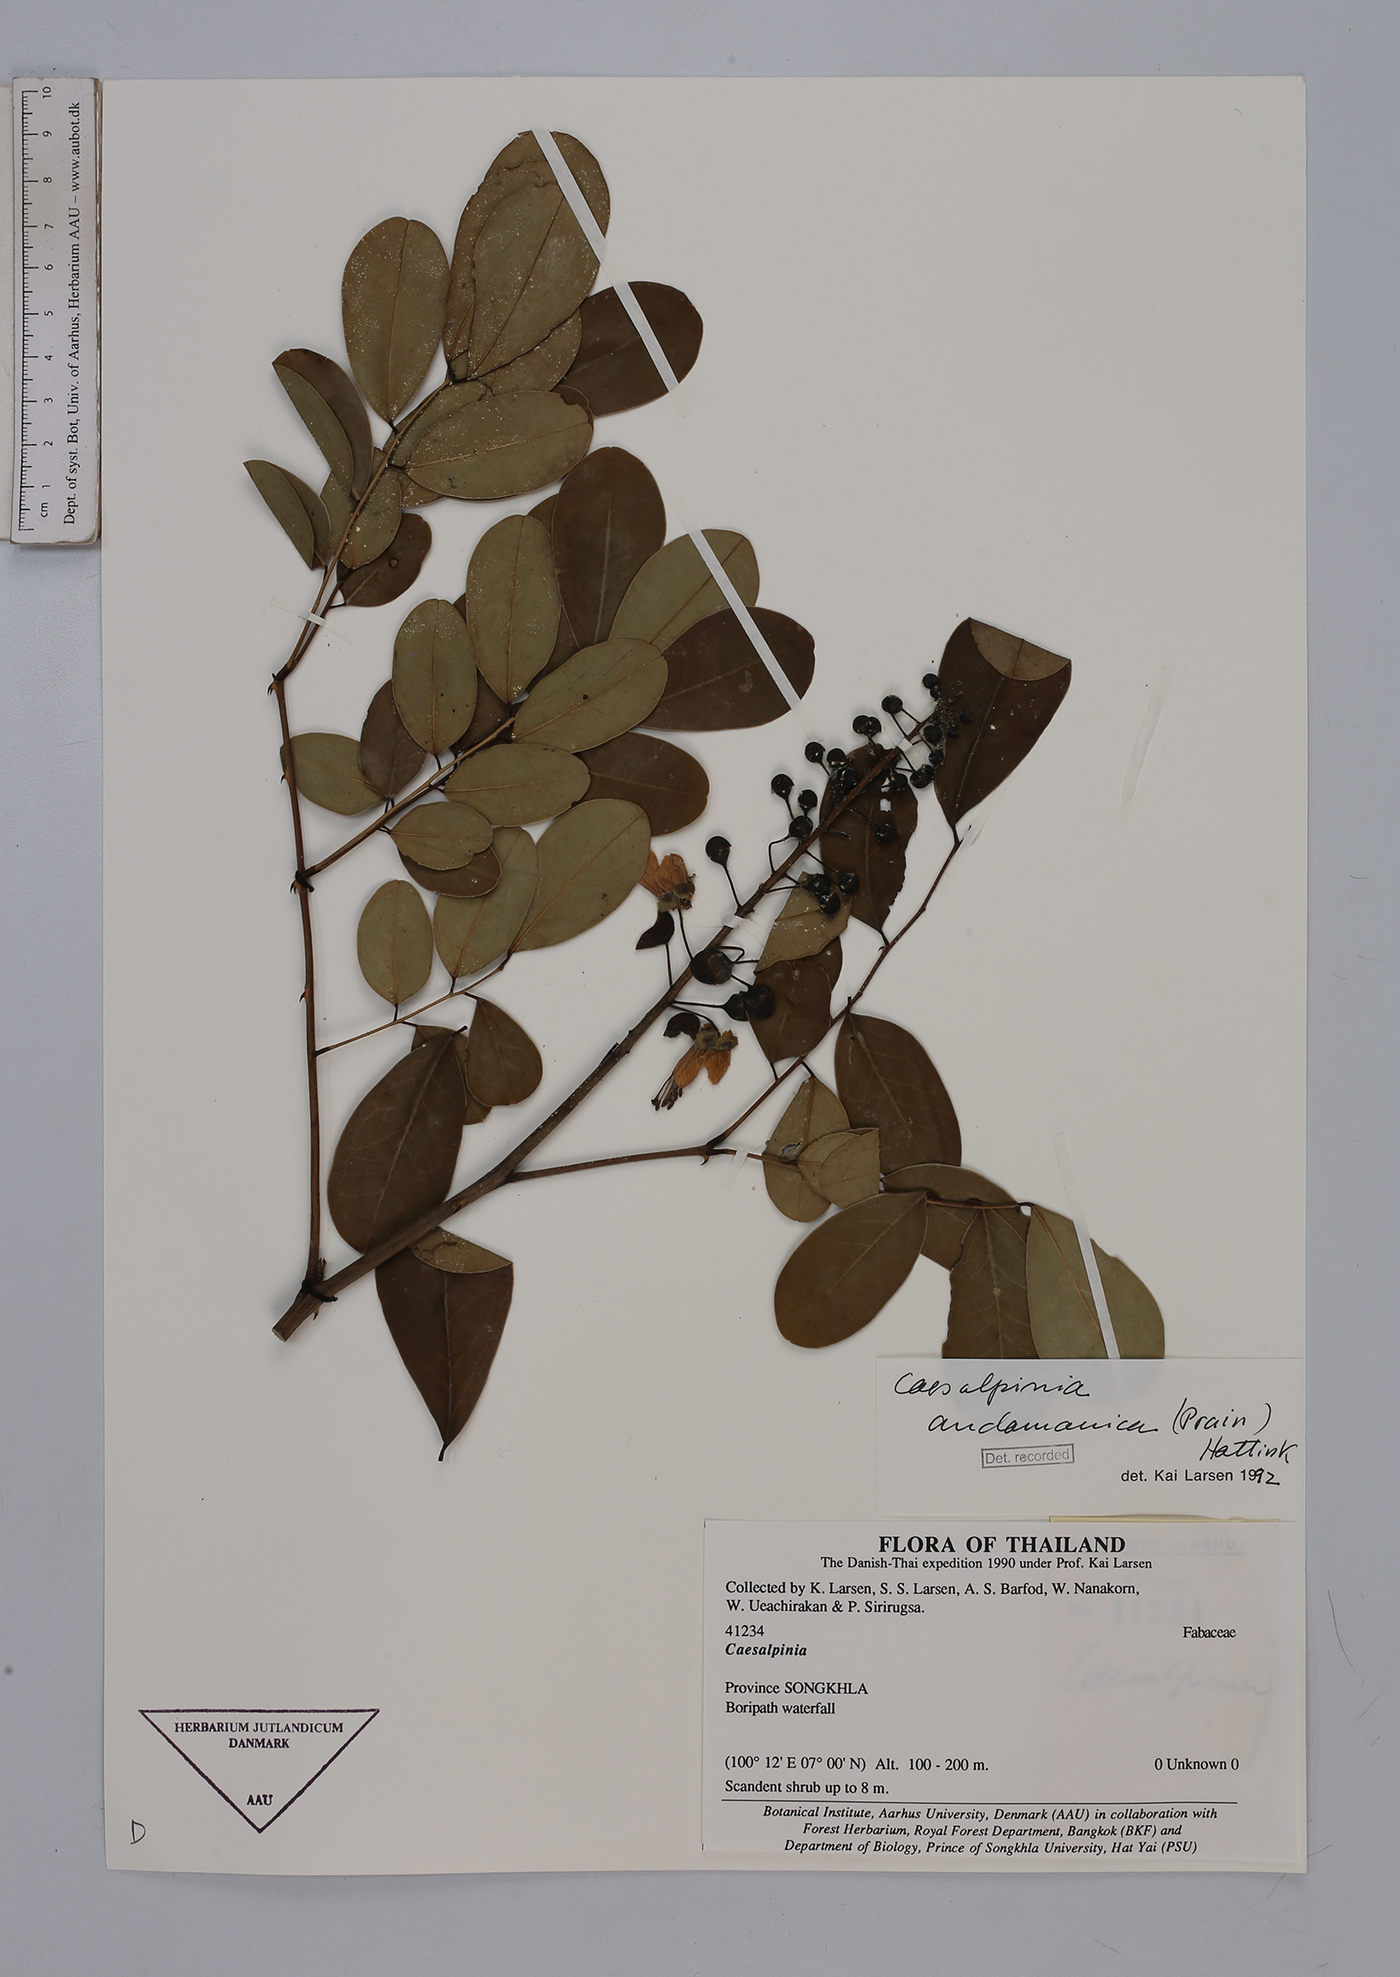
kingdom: Plantae
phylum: Tracheophyta
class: Magnoliopsida
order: Fabales
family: Fabaceae
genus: Mezoneuron
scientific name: Mezoneuron andamanicum
